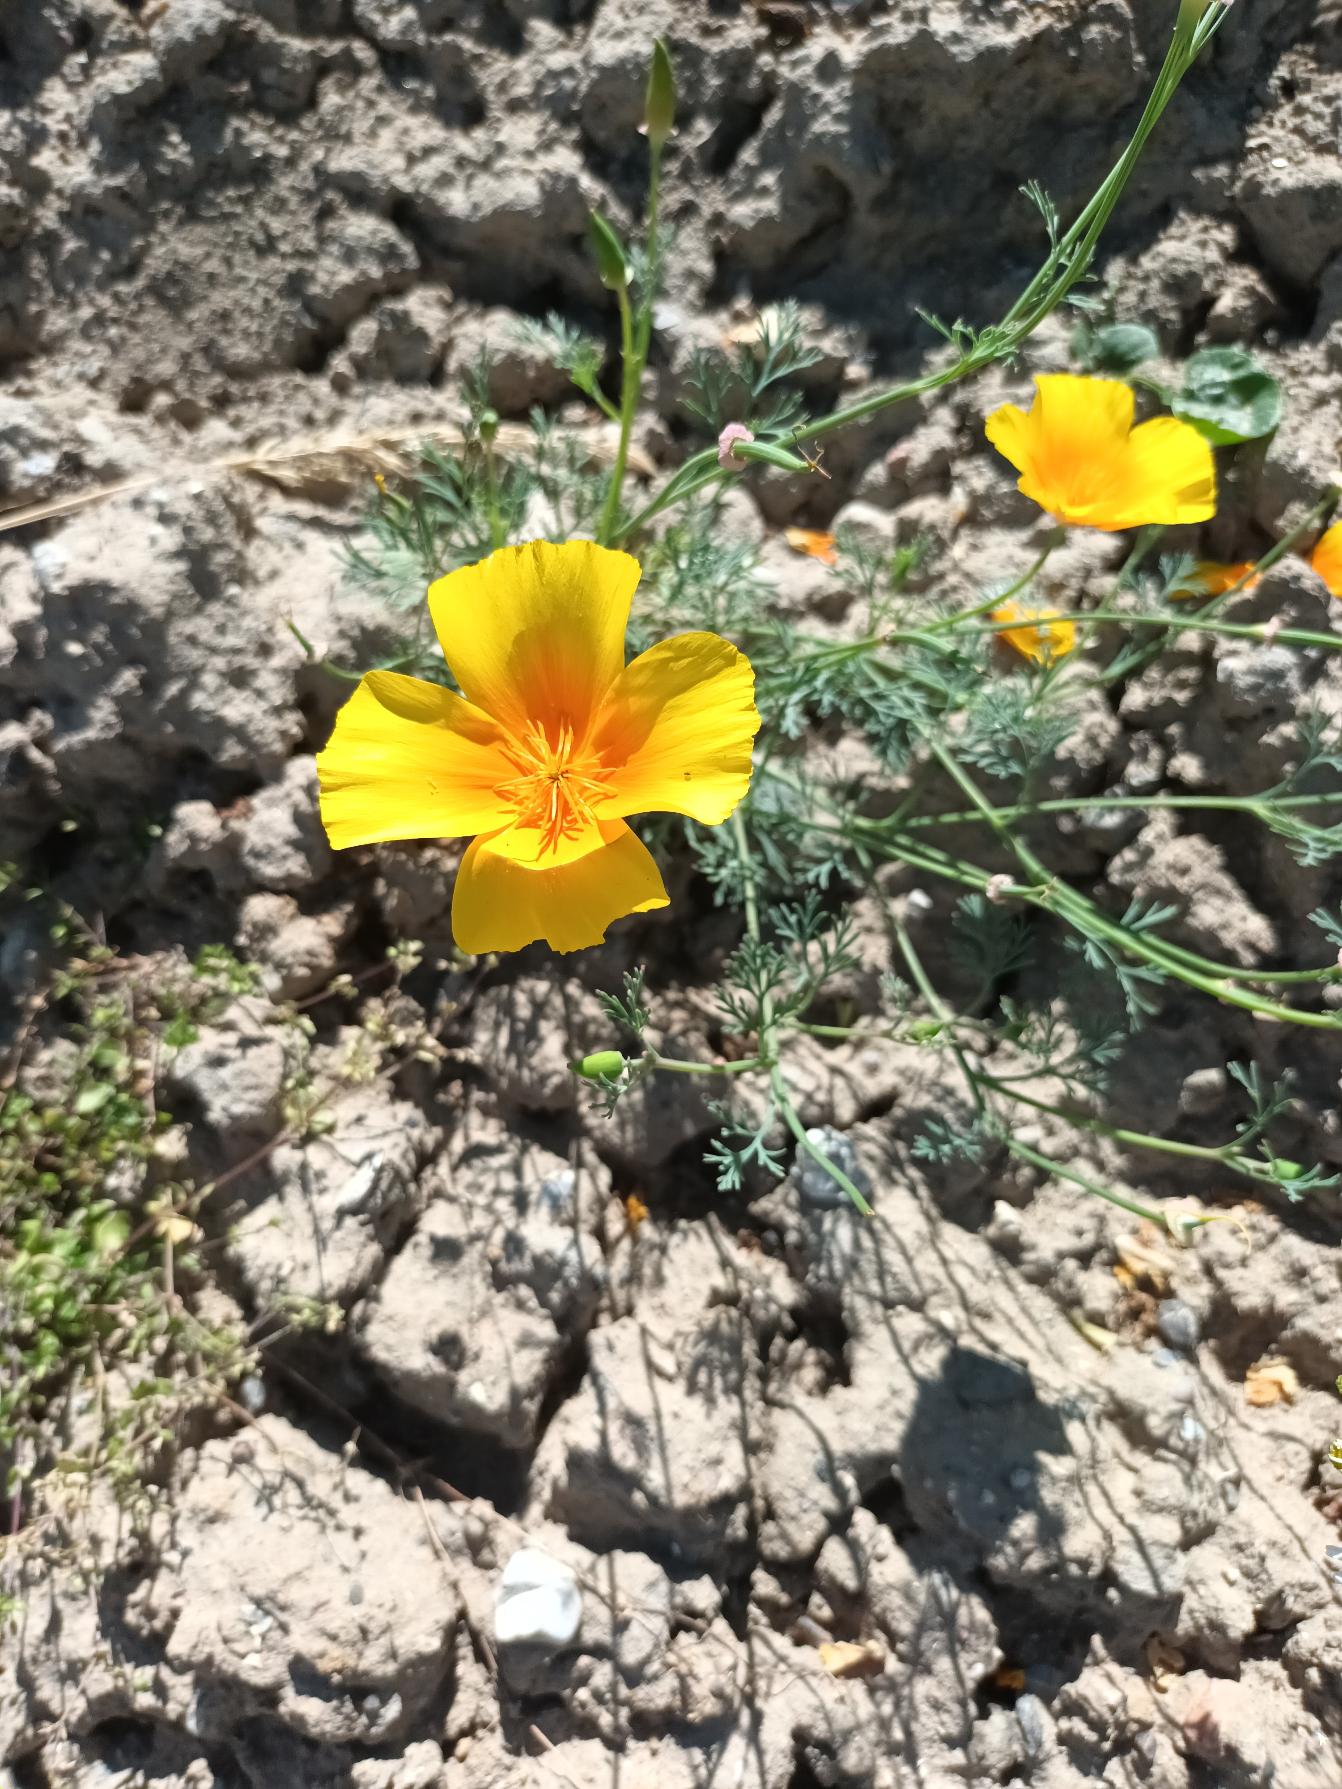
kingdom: Plantae
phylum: Tracheophyta
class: Magnoliopsida
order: Ranunculales
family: Papaveraceae
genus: Eschscholzia
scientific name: Eschscholzia californica
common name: Guldvalmue
